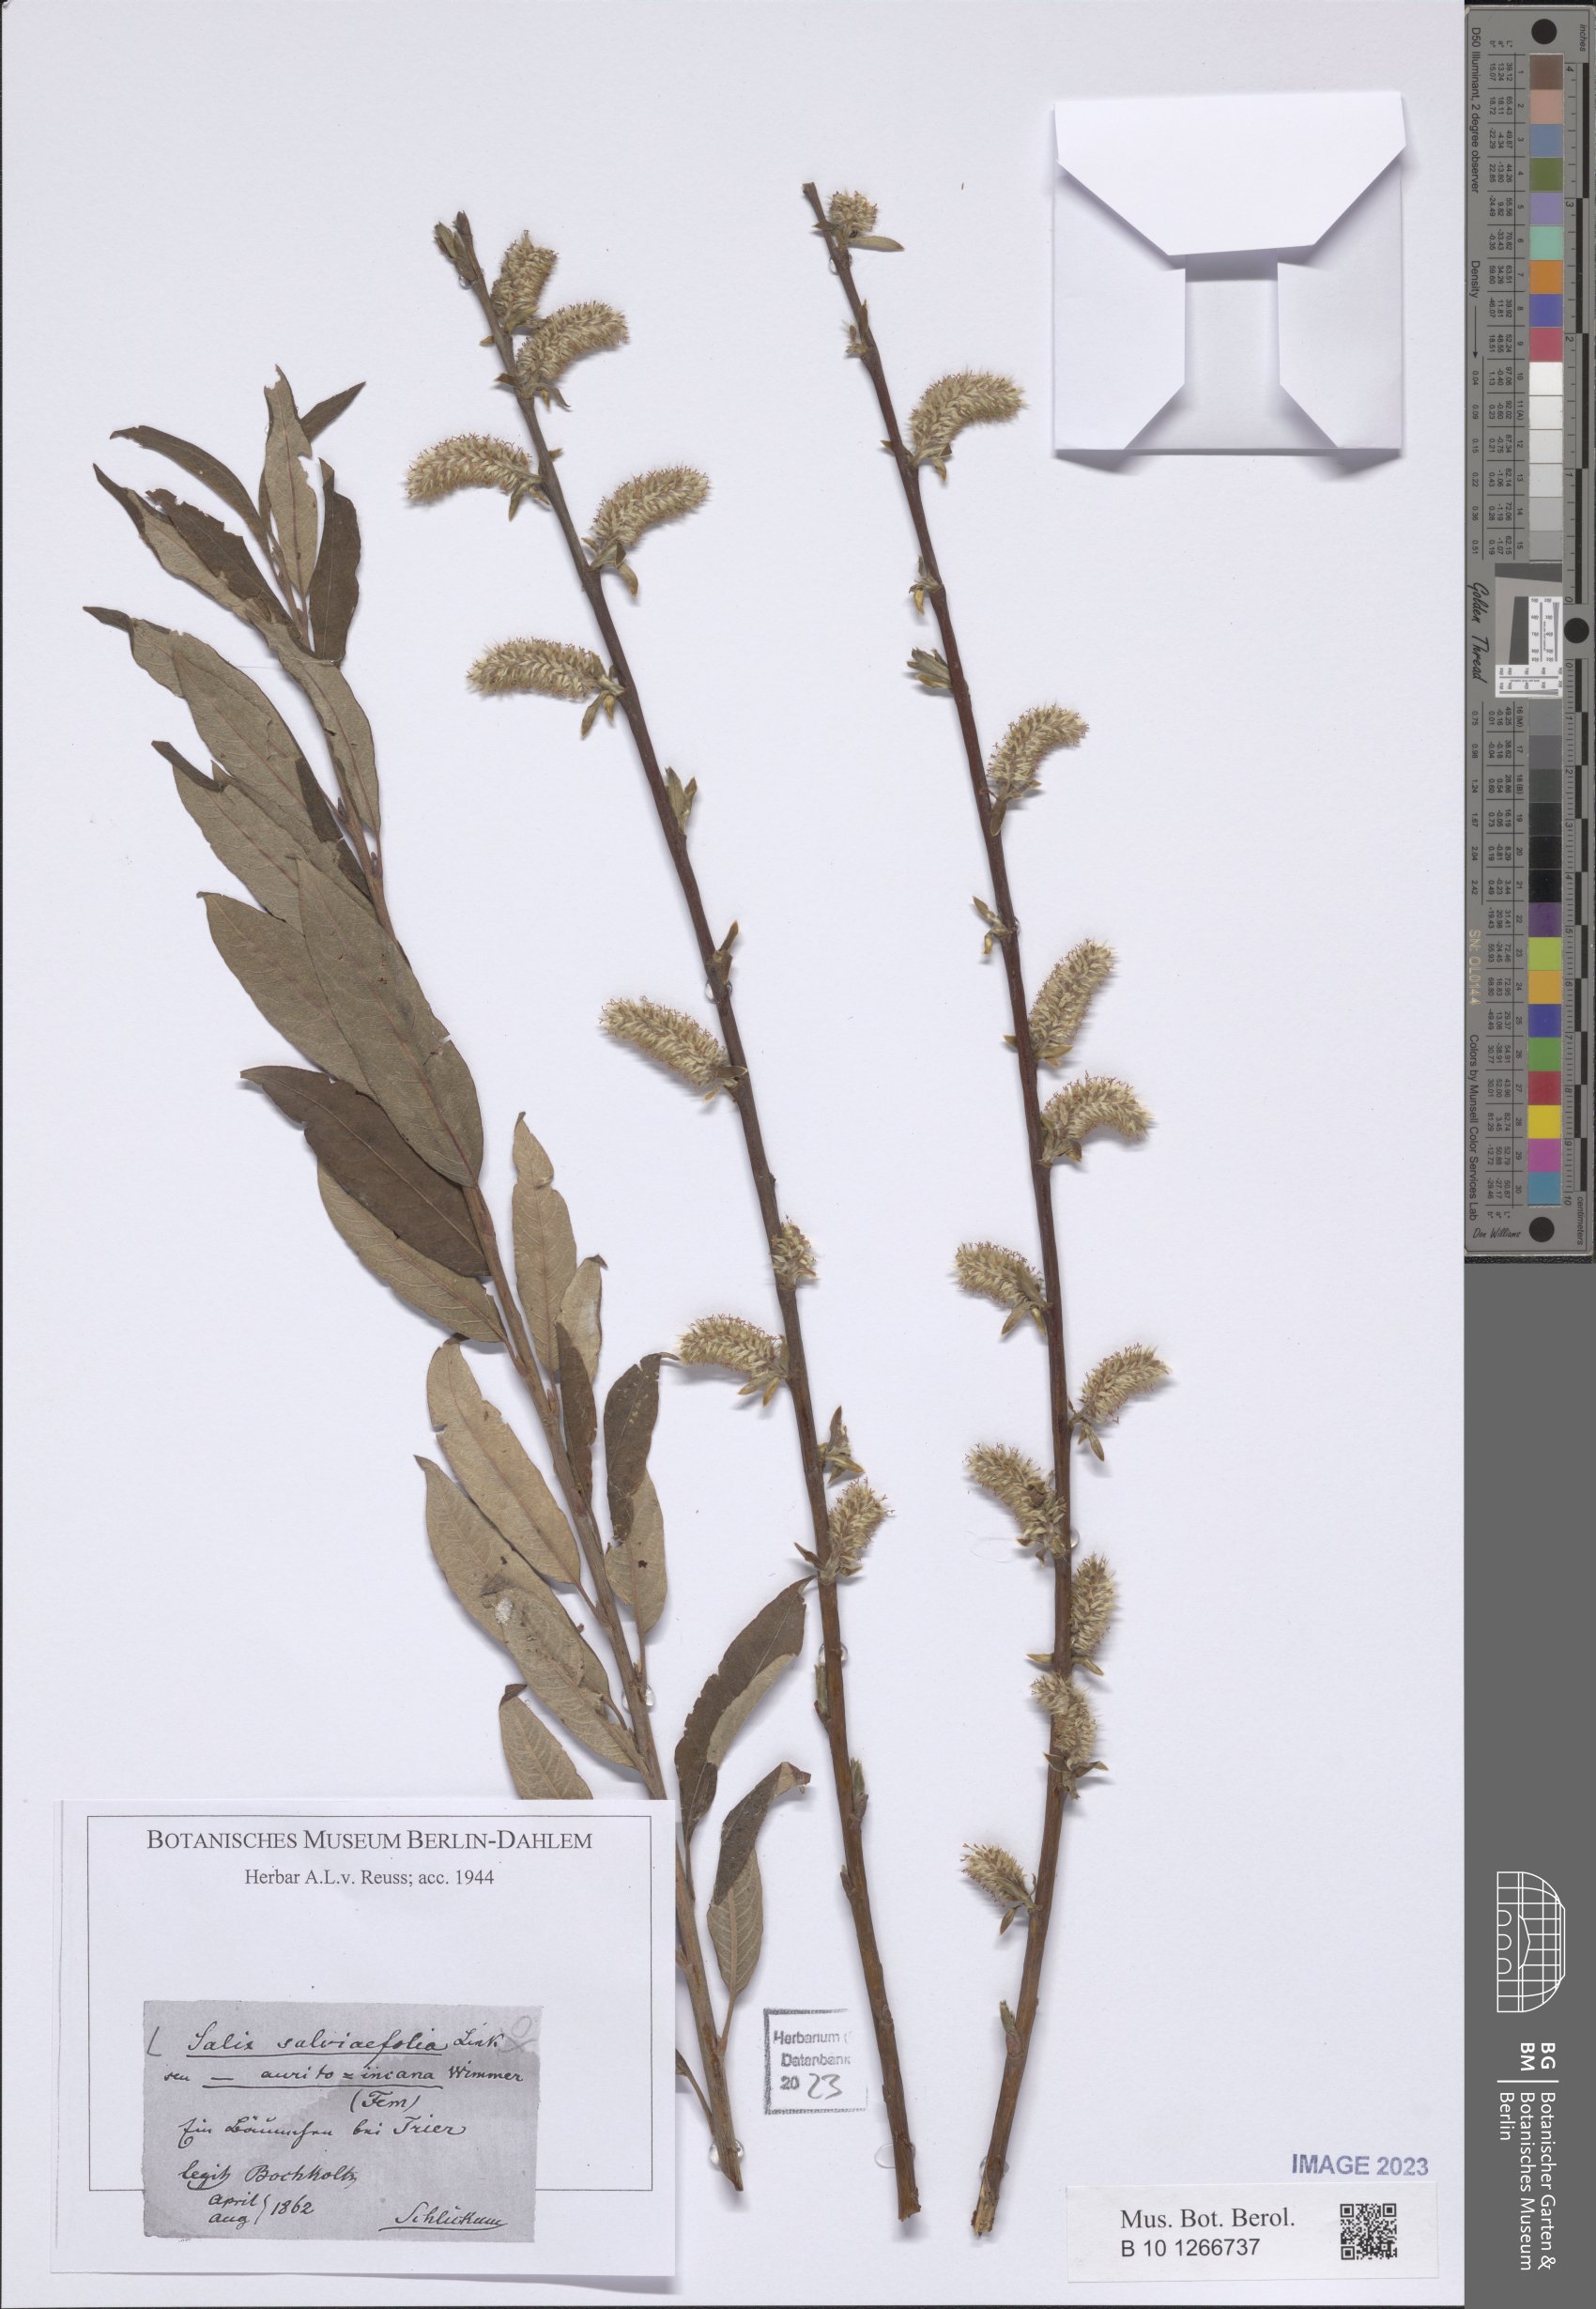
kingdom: Plantae
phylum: Tracheophyta
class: Magnoliopsida
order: Malpighiales
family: Salicaceae
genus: Salix
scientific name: Salix oleifolia
